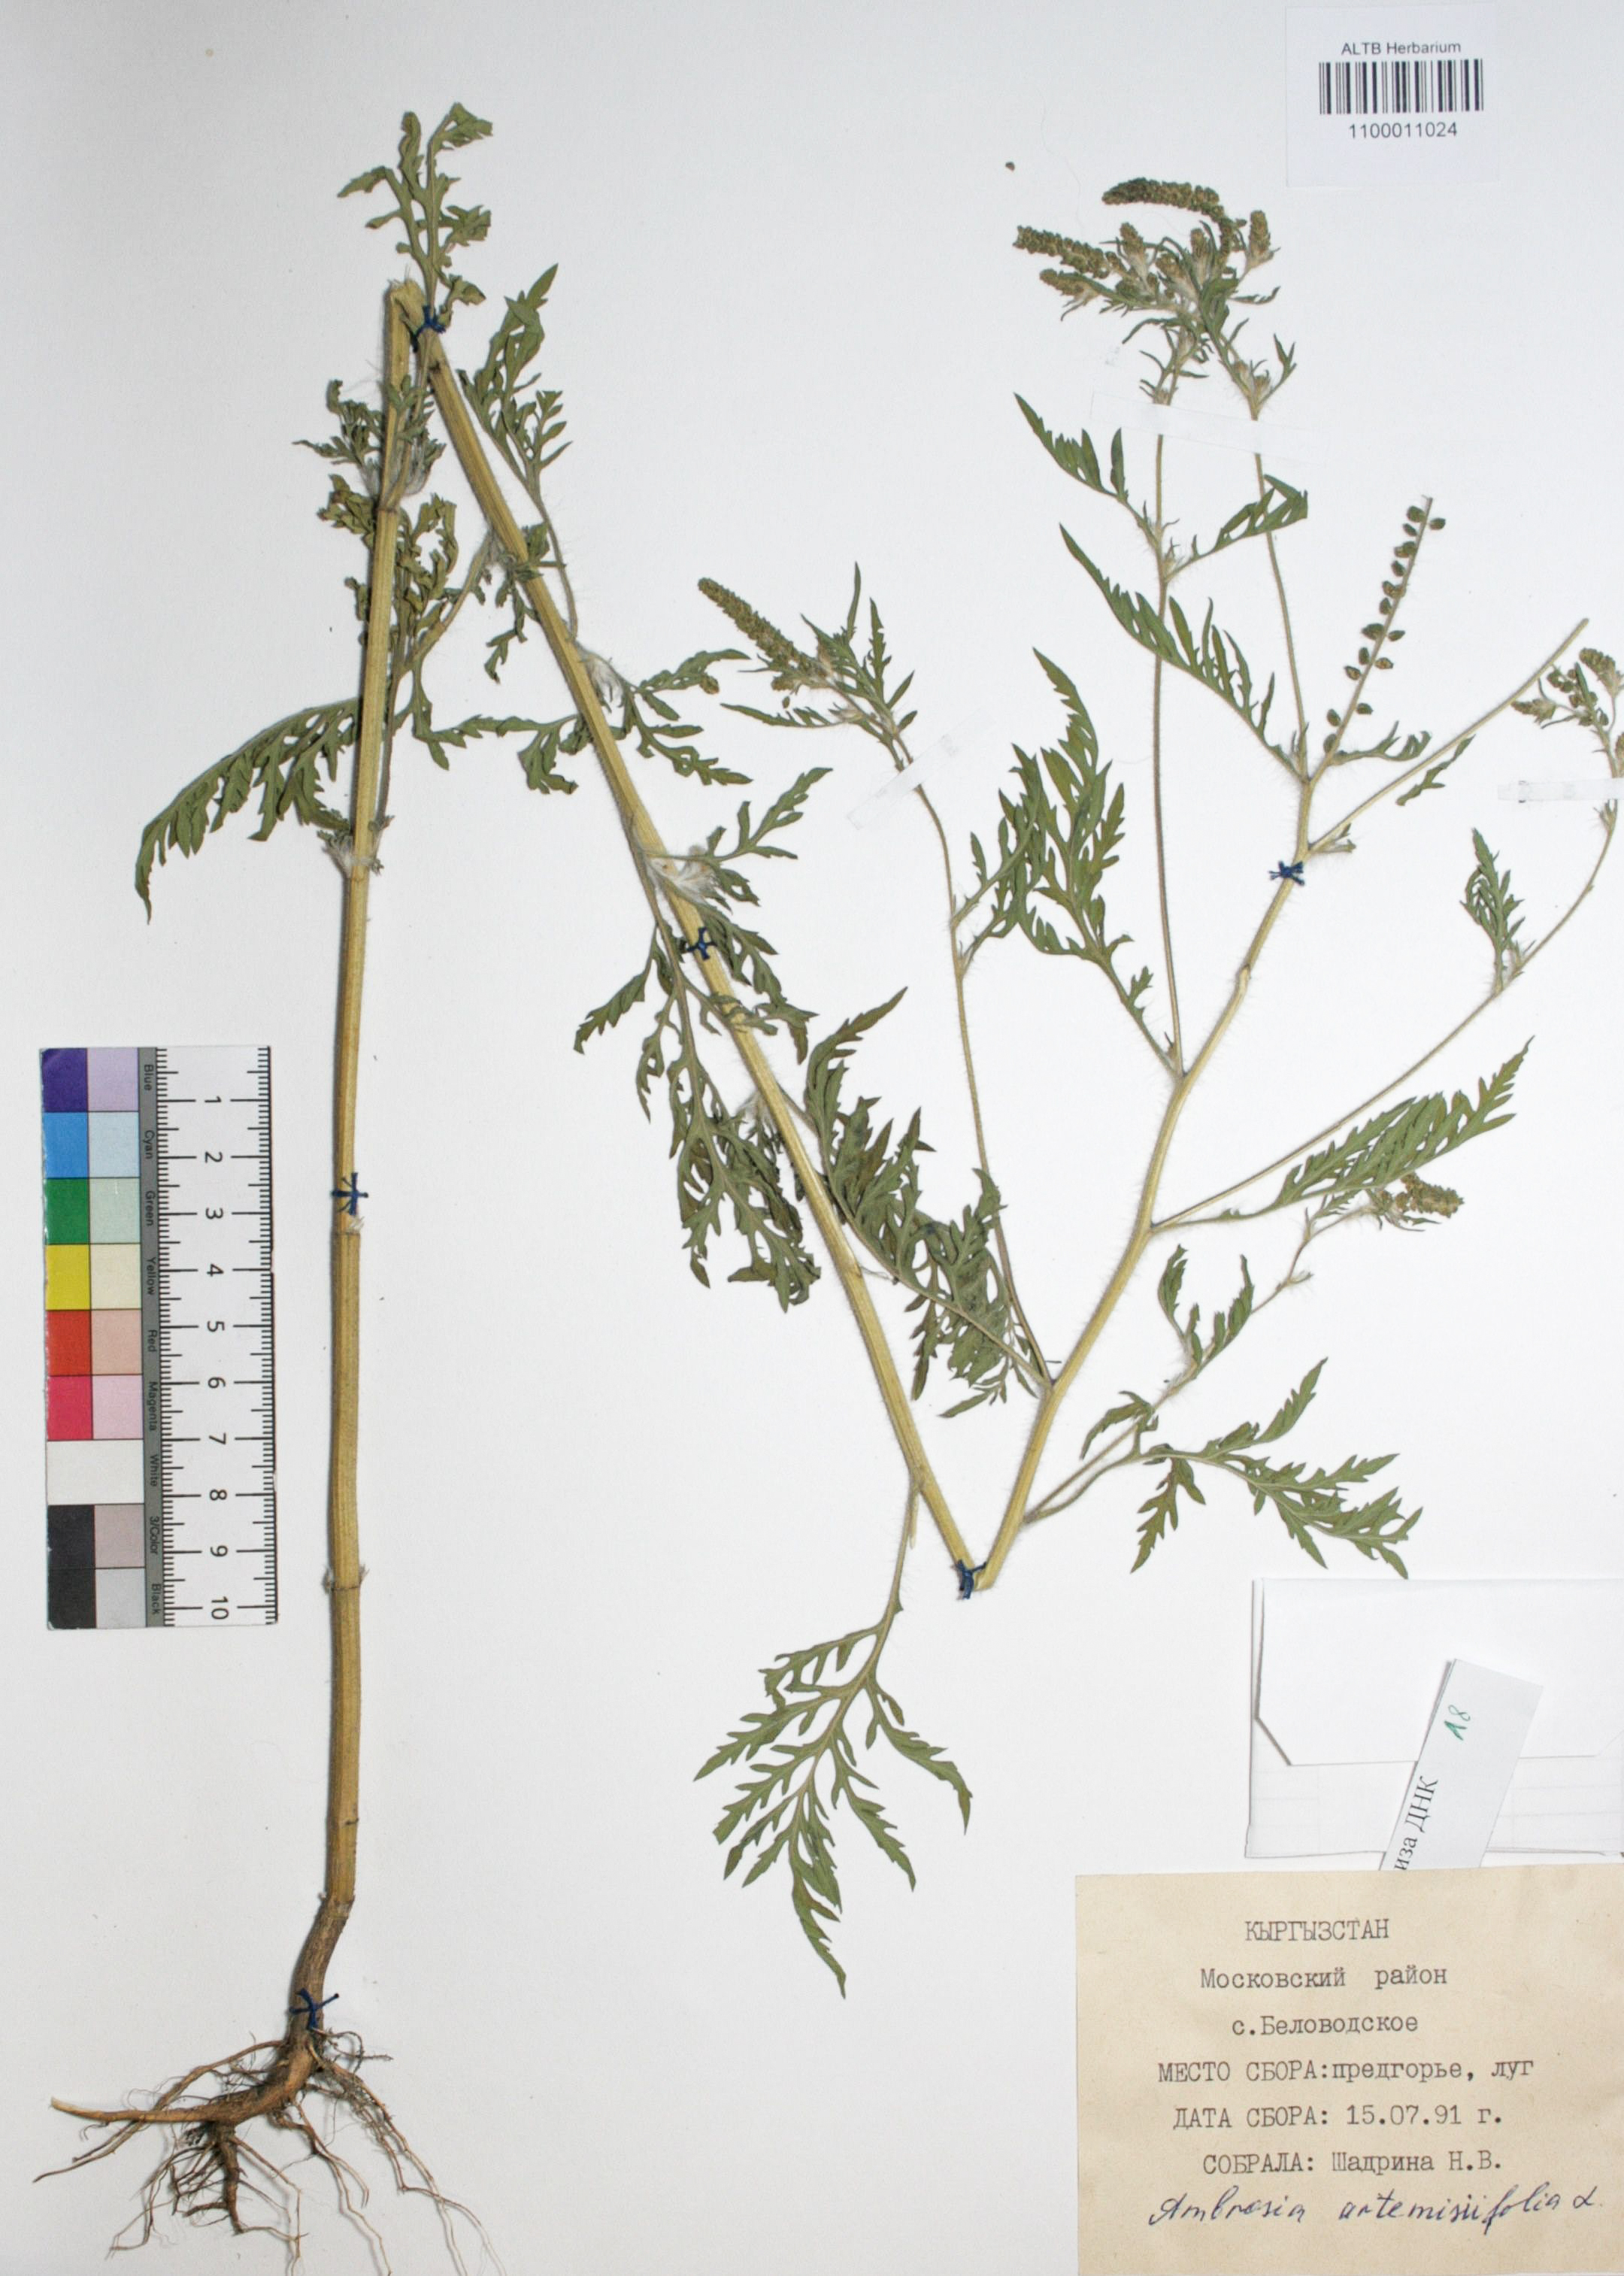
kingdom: Plantae
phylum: Tracheophyta
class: Magnoliopsida
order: Asterales
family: Asteraceae
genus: Ambrosia
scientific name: Ambrosia artemisiifolia
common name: Annual ragweed
